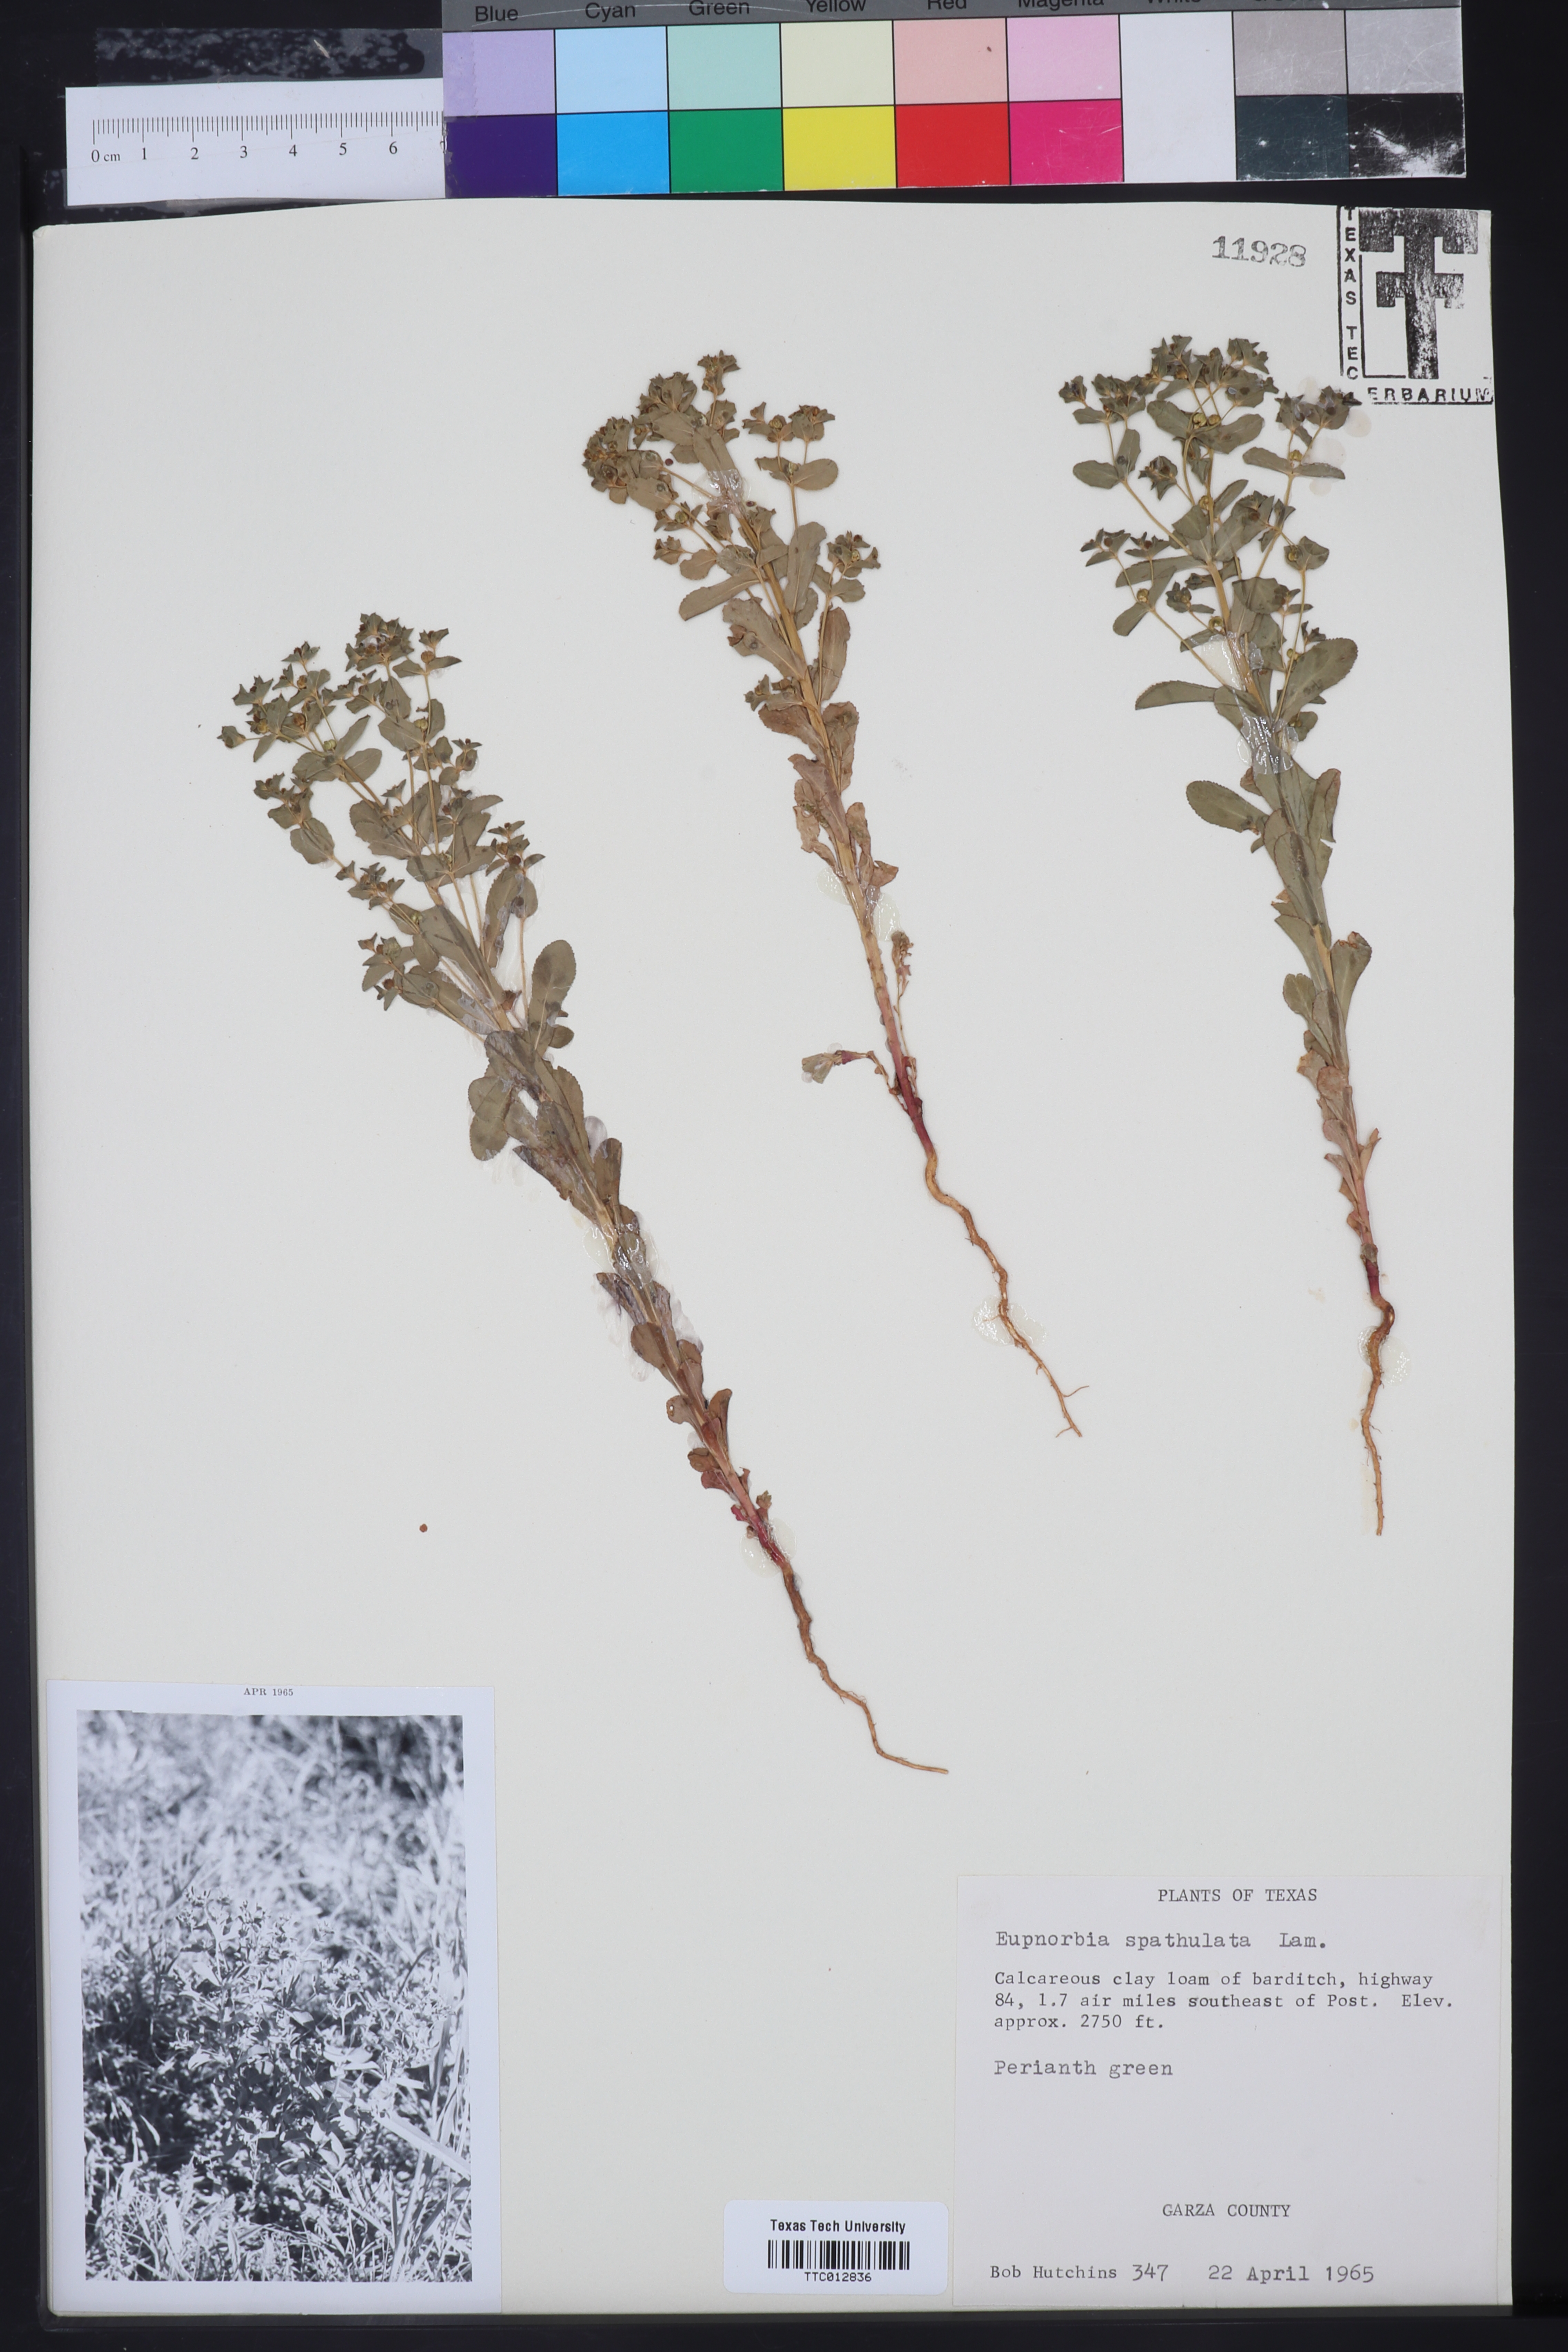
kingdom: Plantae
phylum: Tracheophyta
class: Magnoliopsida
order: Malpighiales
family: Euphorbiaceae
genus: Euphorbia
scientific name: Euphorbia spathulata
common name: Blunt spurge
